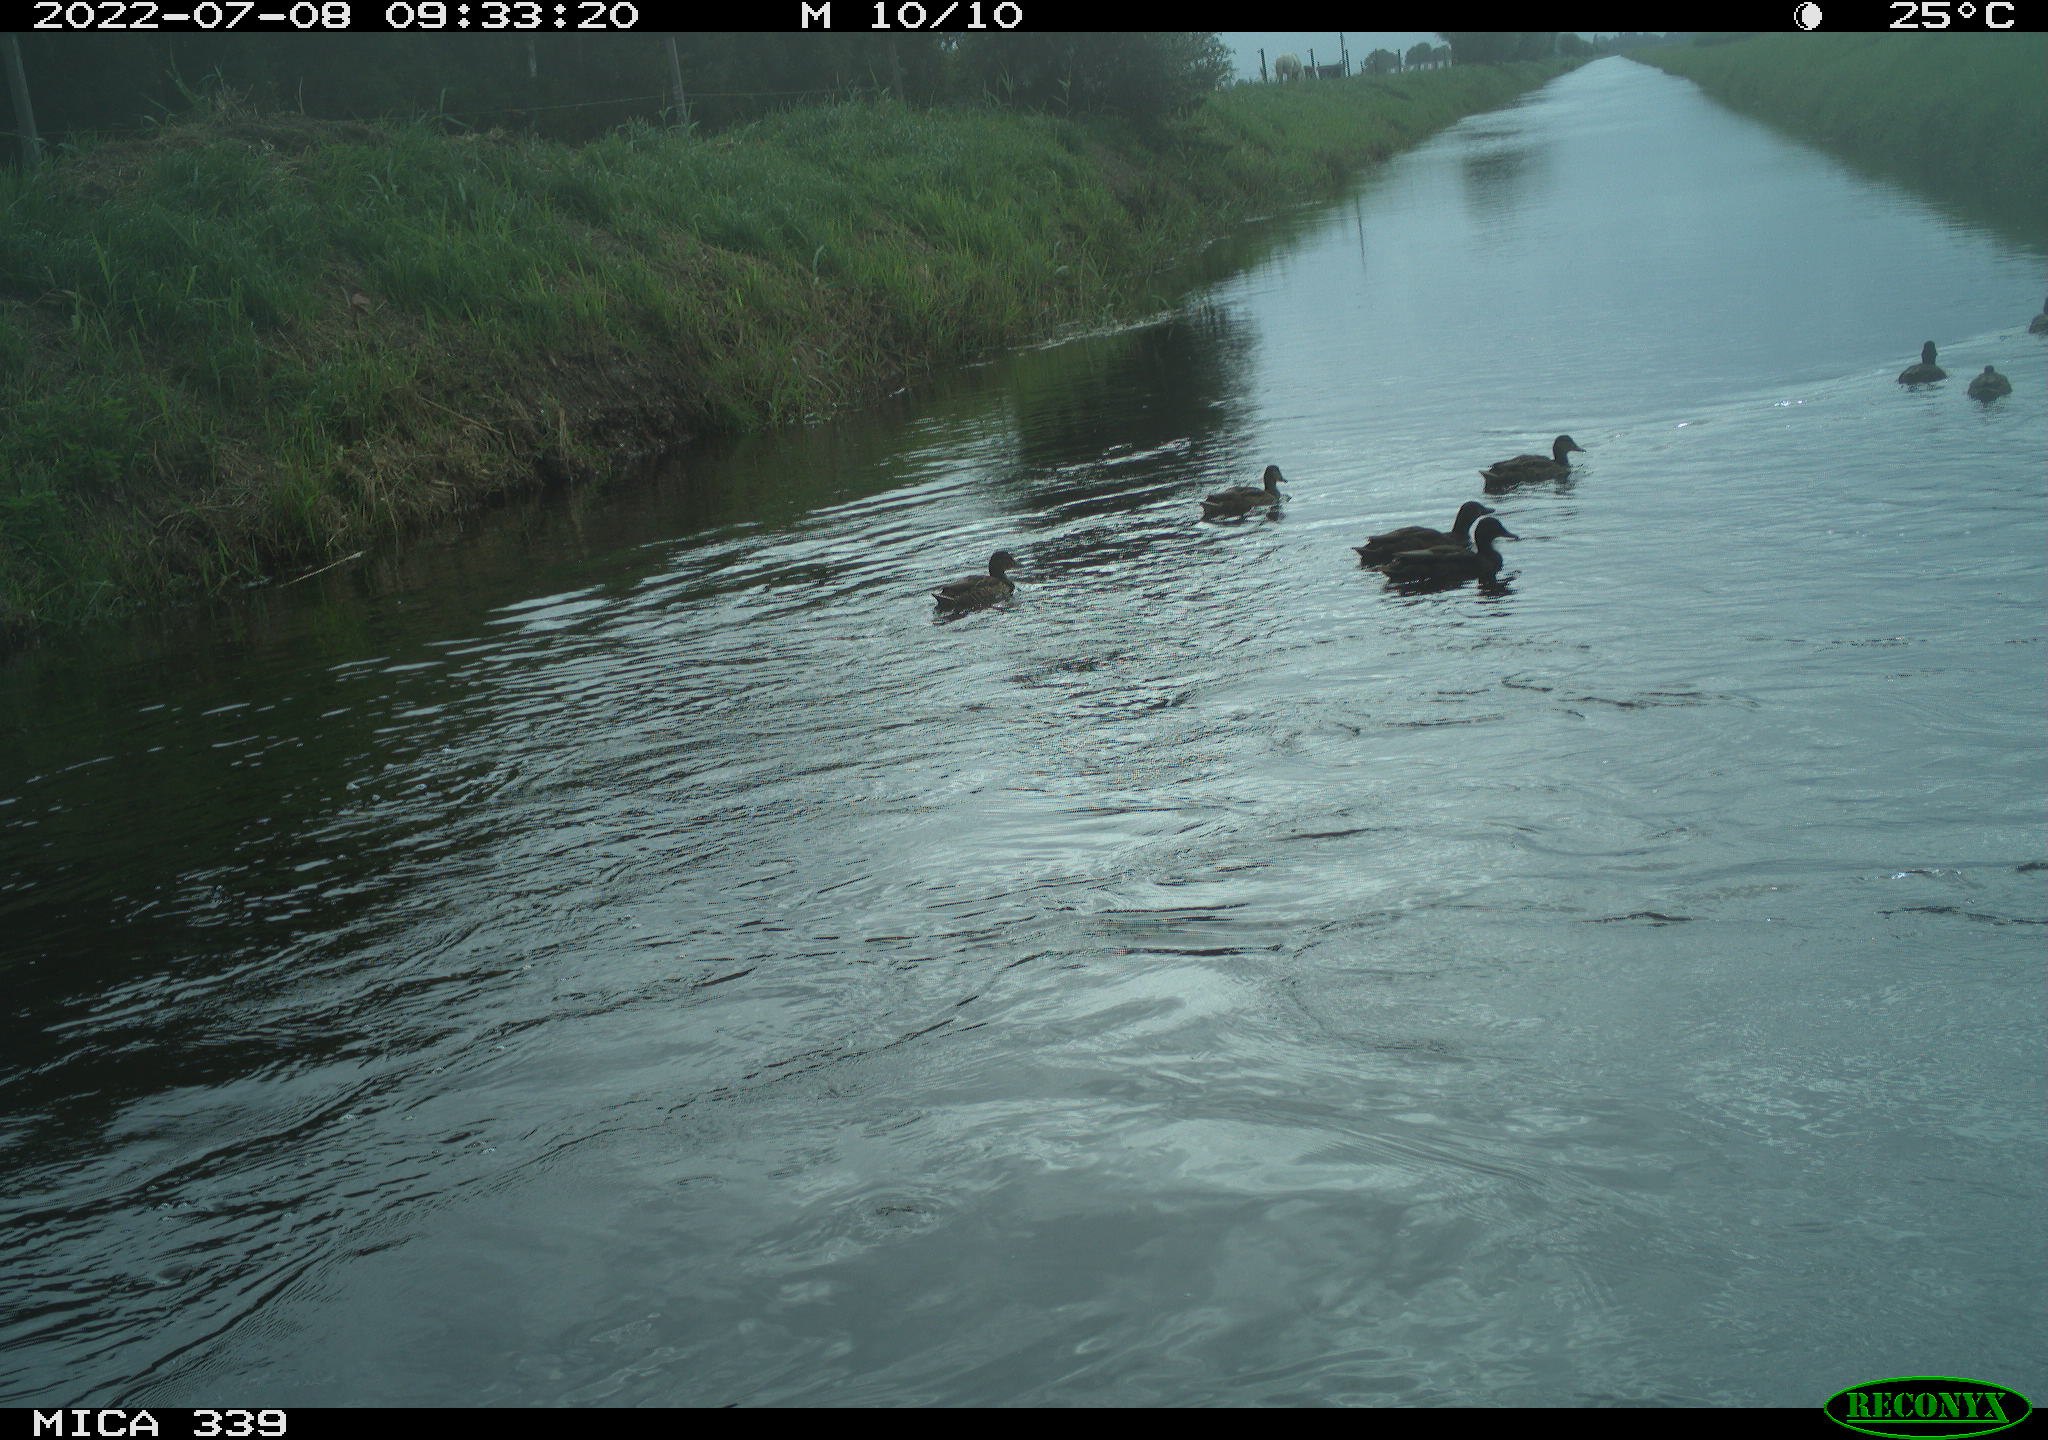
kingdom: Animalia
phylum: Chordata
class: Aves
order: Anseriformes
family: Anatidae
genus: Anas
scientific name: Anas platyrhynchos
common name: Mallard
